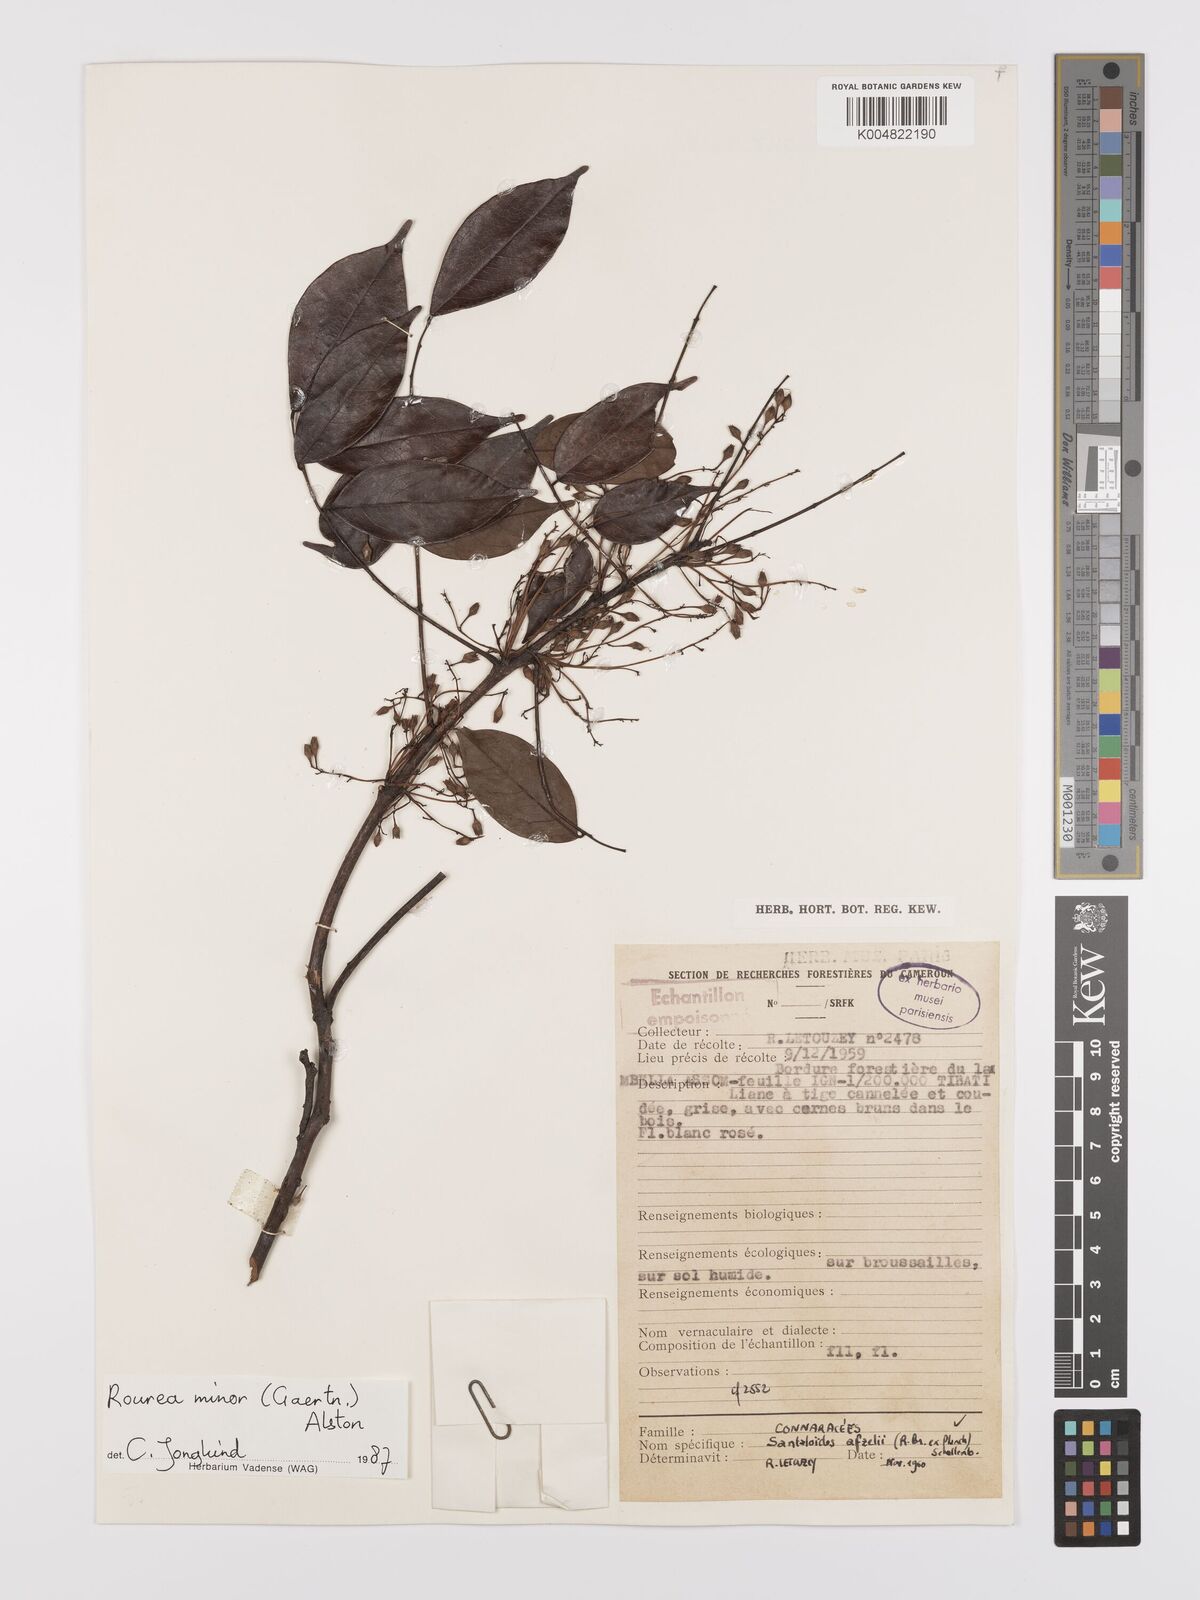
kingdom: Plantae
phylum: Tracheophyta
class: Magnoliopsida
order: Oxalidales
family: Connaraceae
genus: Rourea
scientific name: Rourea minor
